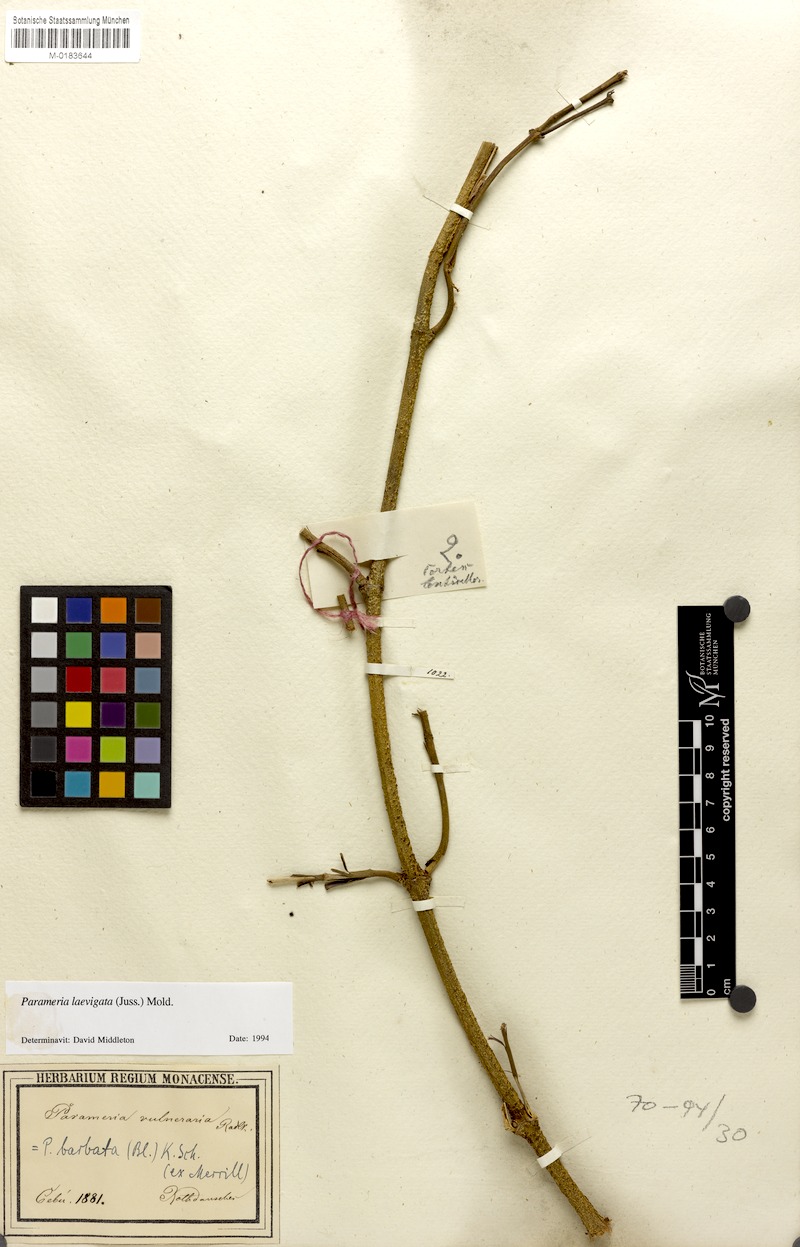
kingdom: Plantae
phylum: Tracheophyta
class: Magnoliopsida
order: Gentianales
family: Apocynaceae
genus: Urceola
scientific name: Urceola laevigata
